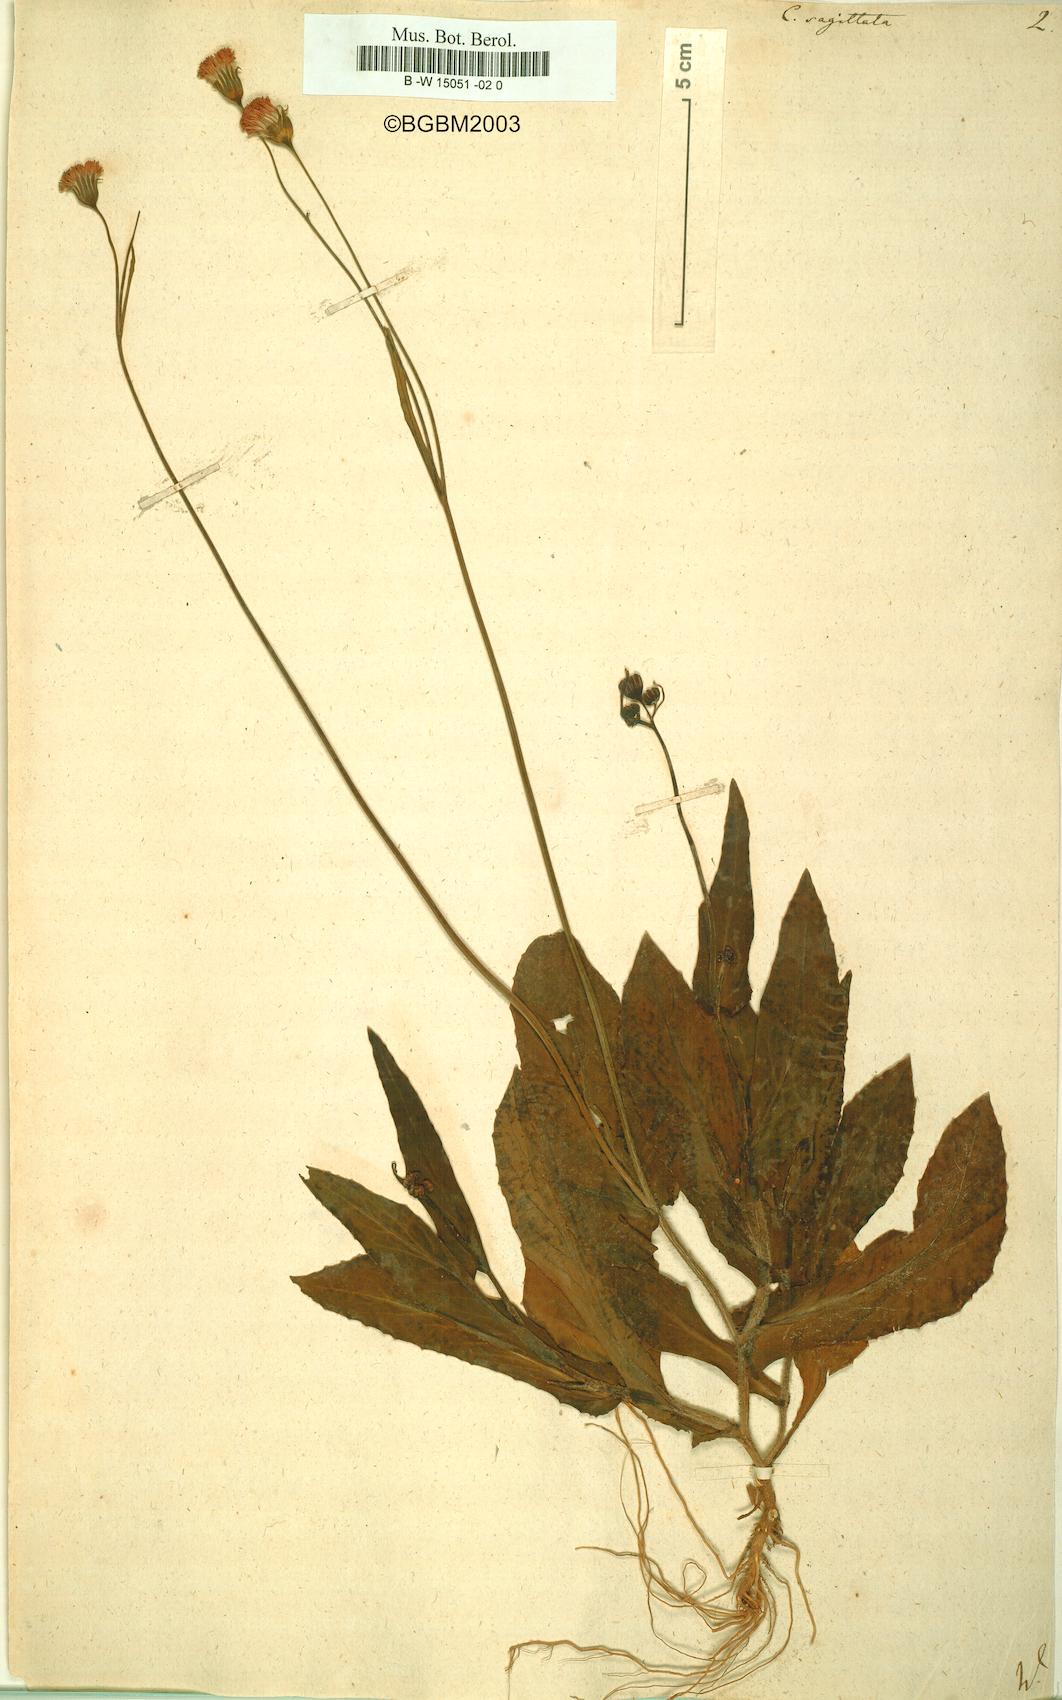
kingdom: Plantae
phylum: Tracheophyta
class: Magnoliopsida
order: Asterales
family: Asteraceae
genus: Emilia
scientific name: Emilia
